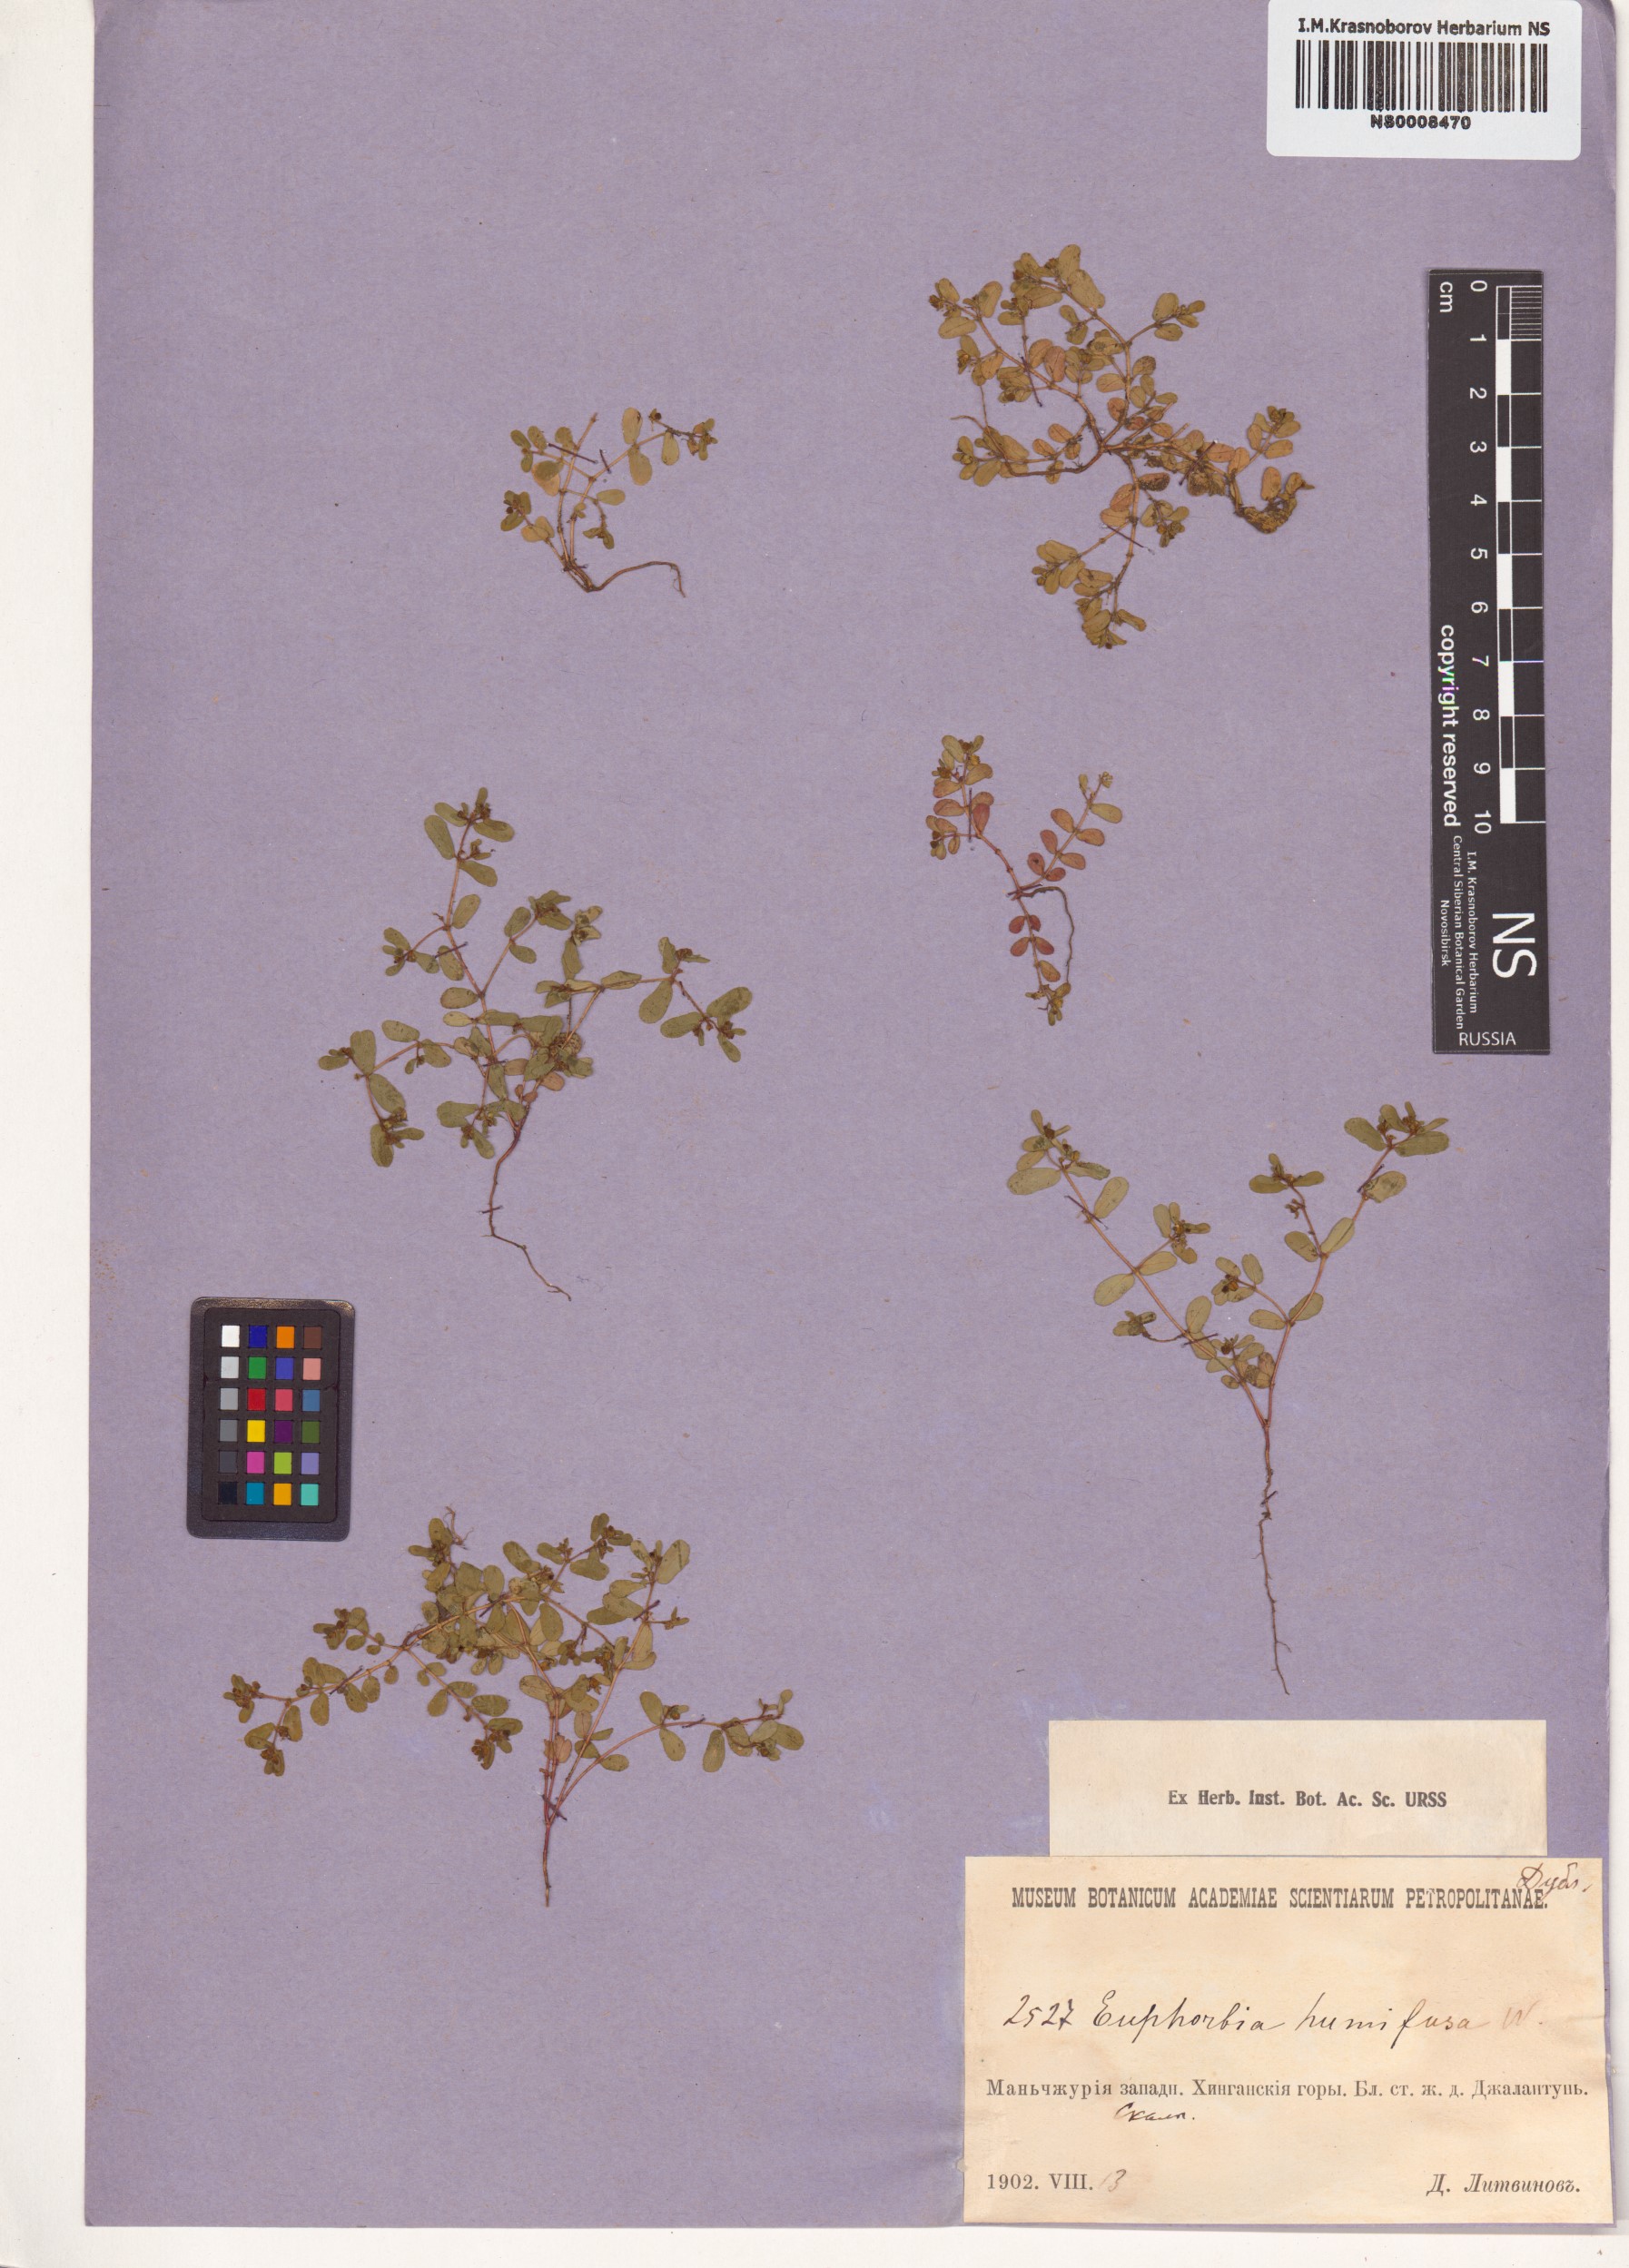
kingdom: Plantae
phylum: Tracheophyta
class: Magnoliopsida
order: Malpighiales
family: Euphorbiaceae
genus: Euphorbia
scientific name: Euphorbia humifusa
